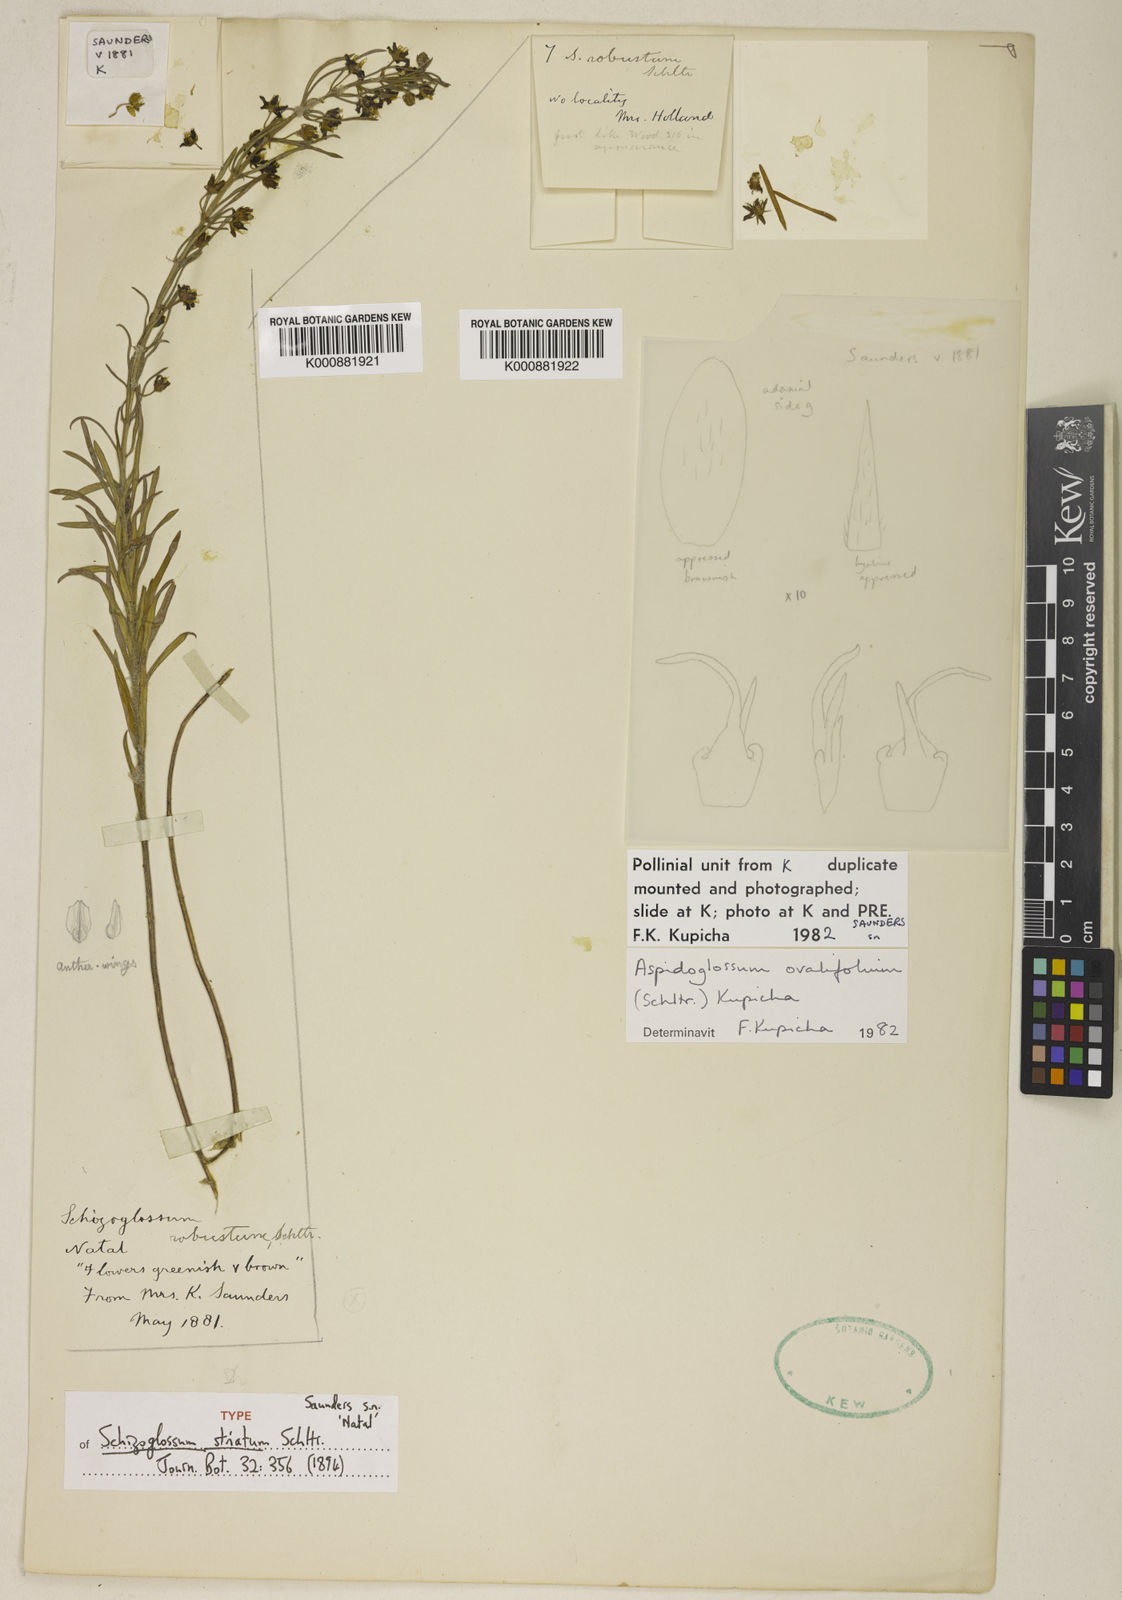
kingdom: Plantae
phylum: Tracheophyta
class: Magnoliopsida
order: Gentianales
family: Apocynaceae
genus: Aspidoglossum
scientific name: Aspidoglossum ovalifolium
